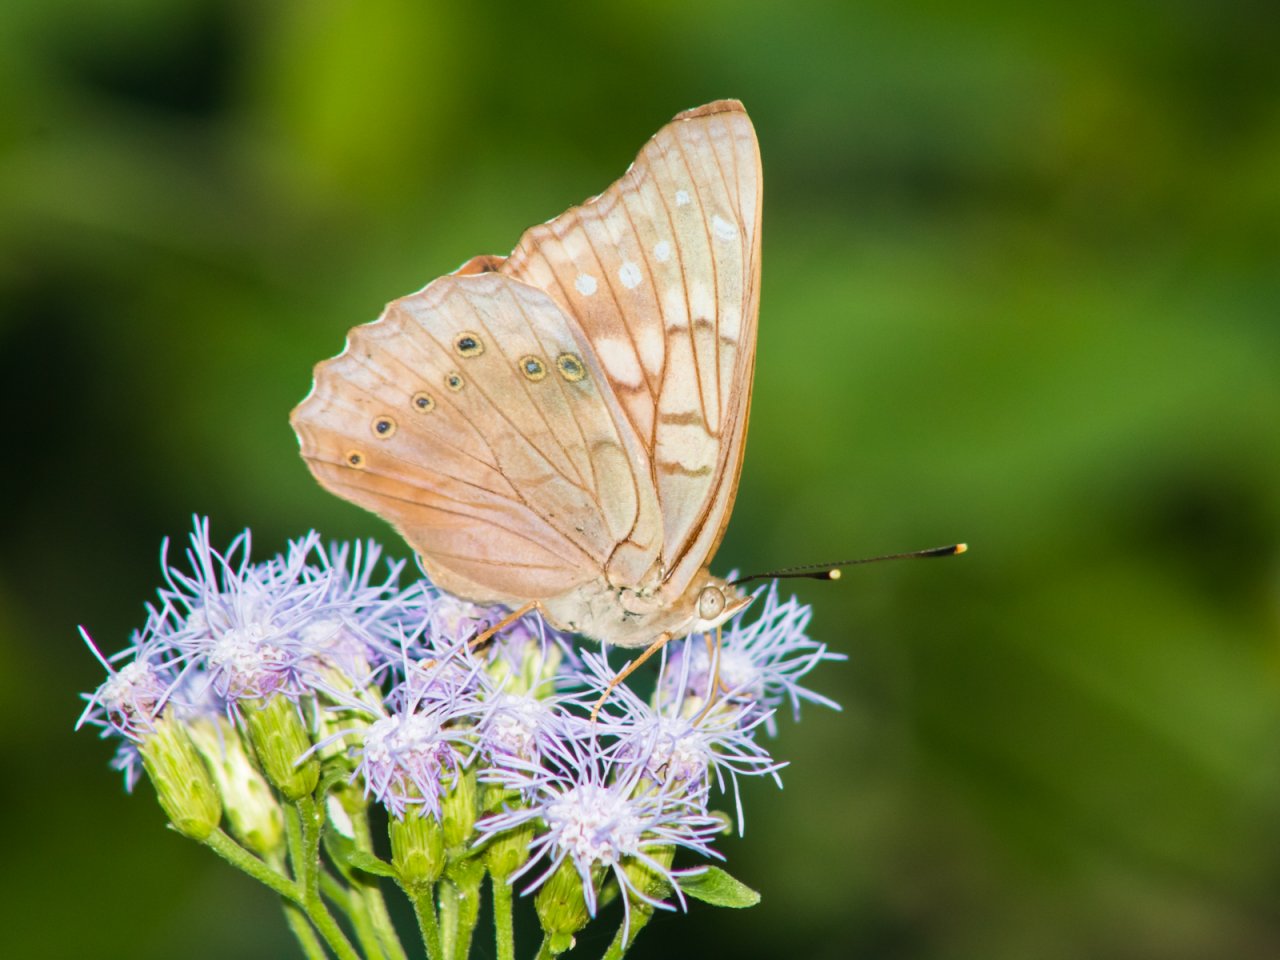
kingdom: Animalia
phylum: Arthropoda
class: Insecta
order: Lepidoptera
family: Nymphalidae
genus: Asterocampa
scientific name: Asterocampa clyton
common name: Tawny Emperor
